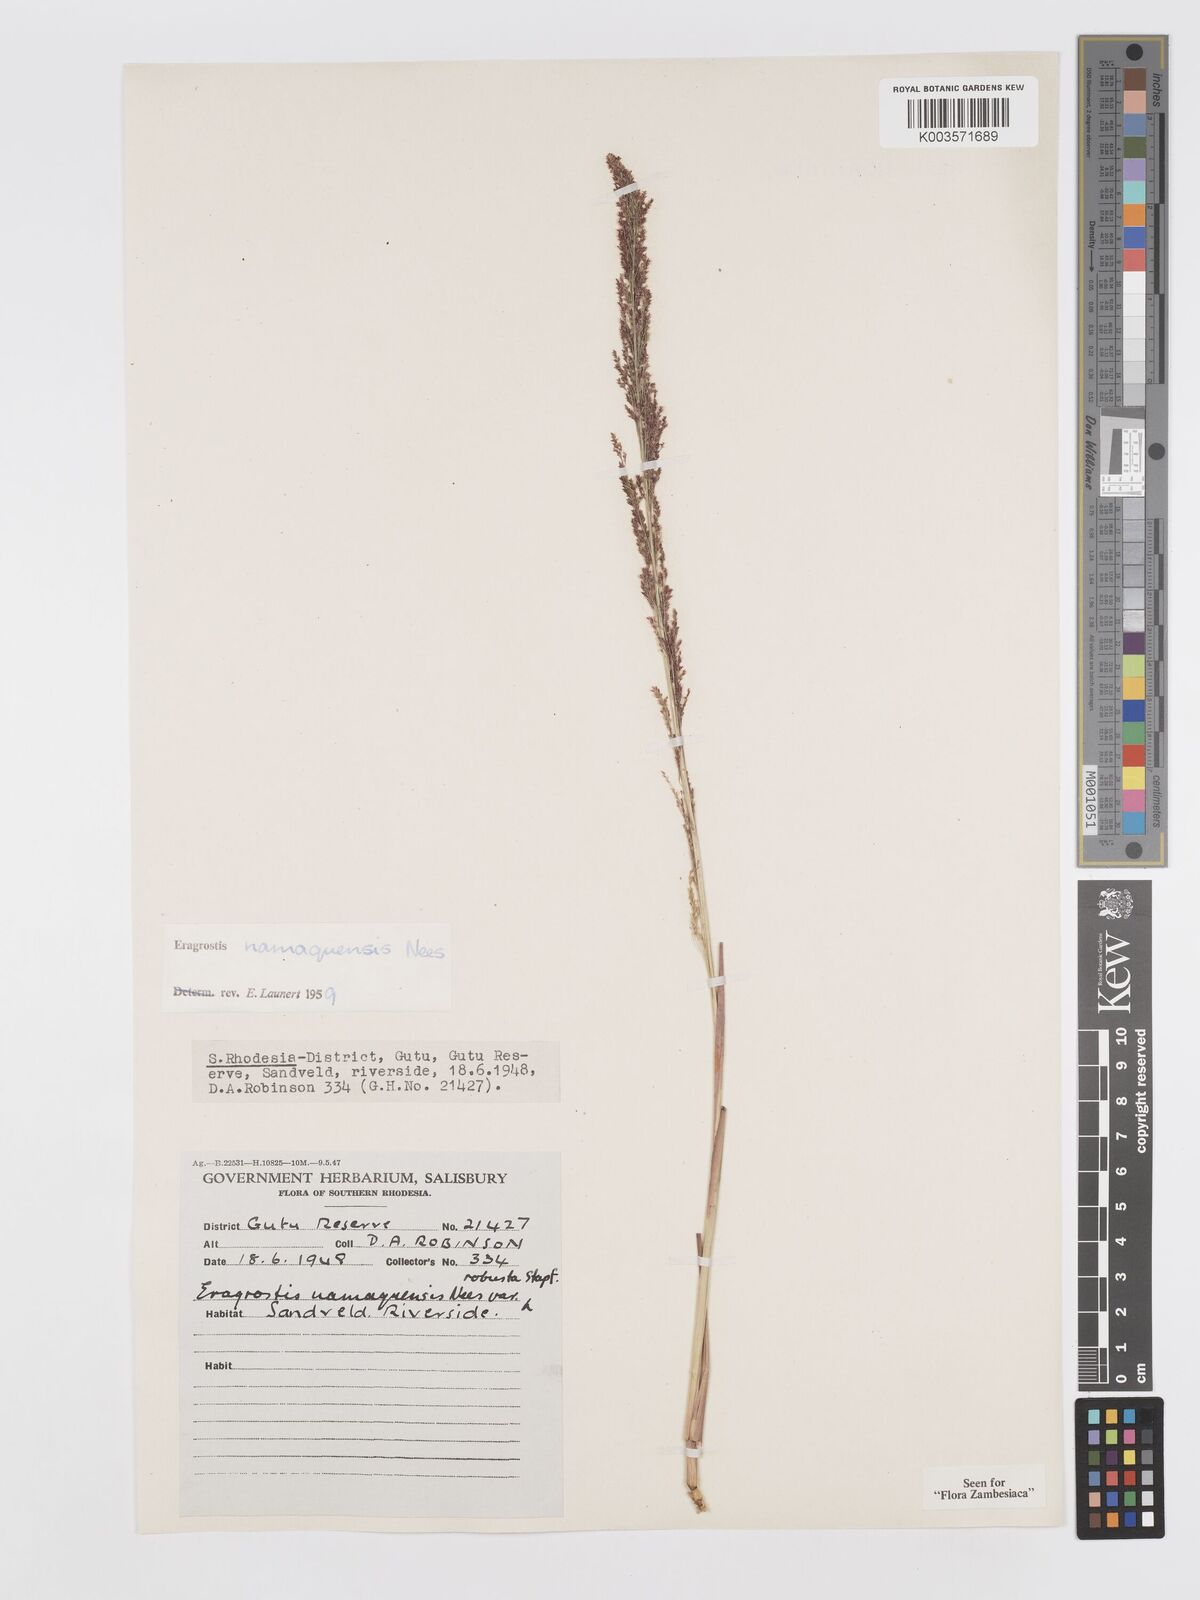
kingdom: Plantae
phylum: Tracheophyta
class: Liliopsida
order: Poales
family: Poaceae
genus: Eragrostis
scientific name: Eragrostis japonica
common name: Pond lovegrass
